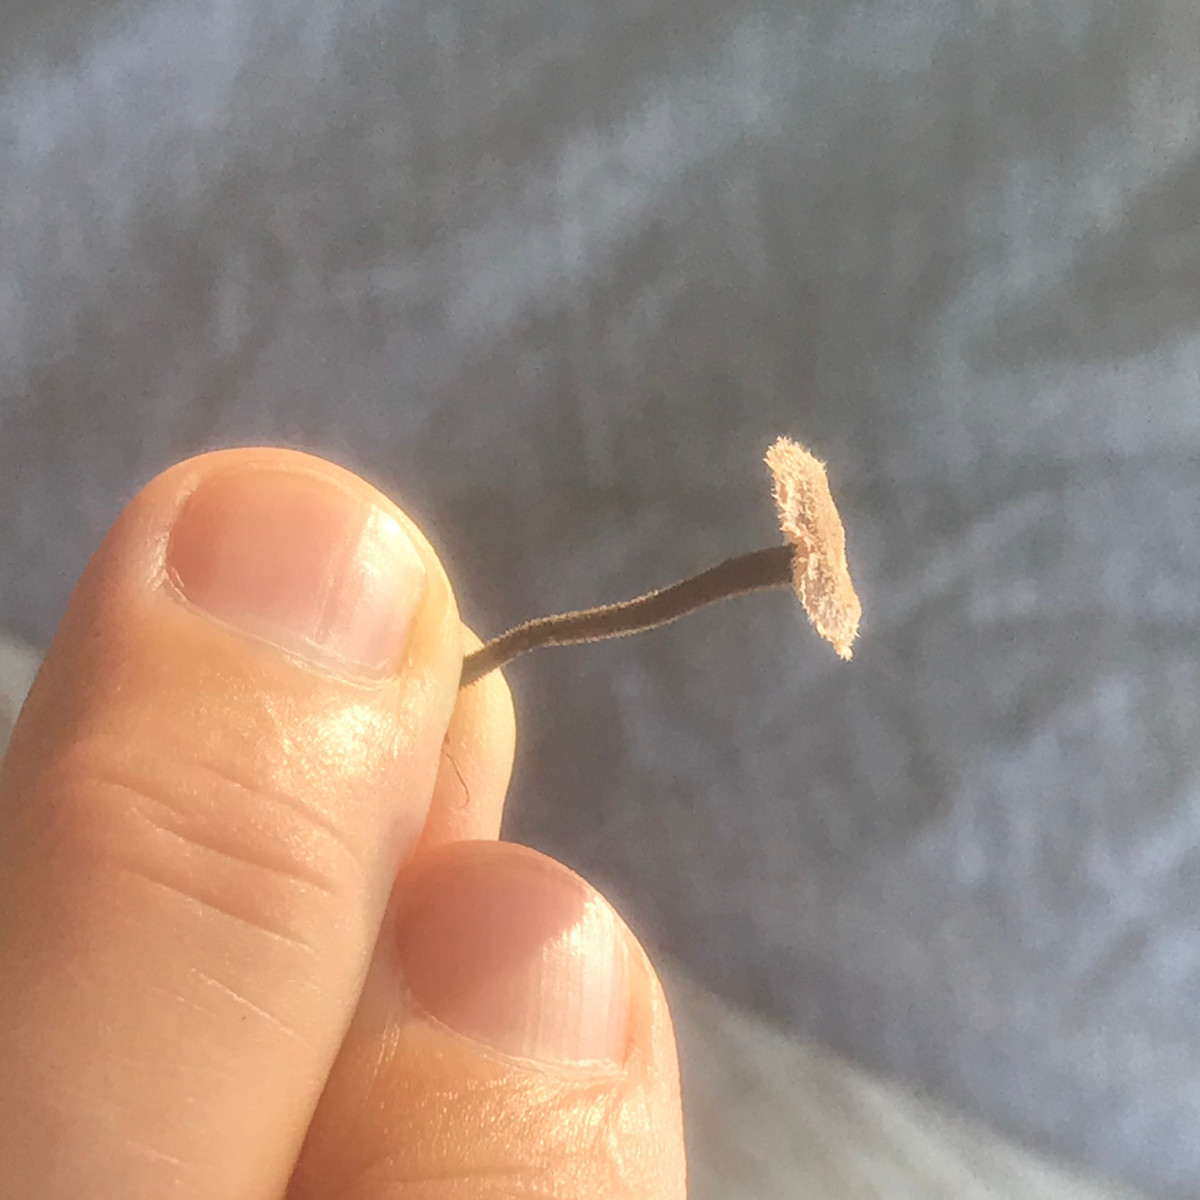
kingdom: Fungi
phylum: Basidiomycota
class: Agaricomycetes
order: Russulales
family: Auriscalpiaceae
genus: Auriscalpium
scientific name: Auriscalpium vulgare
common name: koglepigsvamp
